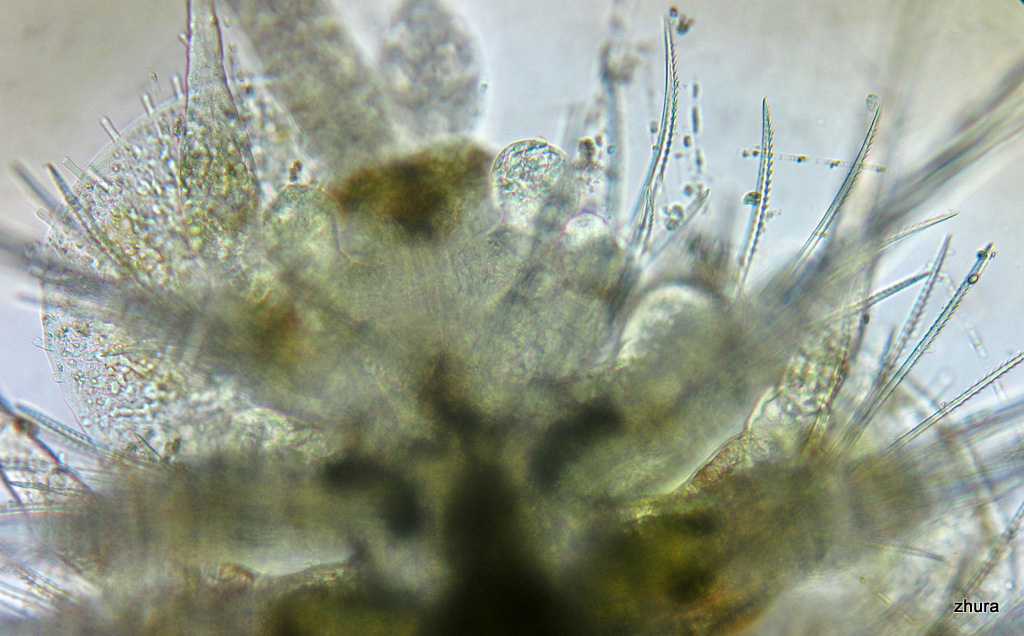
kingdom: Animalia
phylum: Annelida
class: Polychaeta
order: Phyllodocida
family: Polynoidae
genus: Lepidonotus
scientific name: Lepidonotus squamatus
